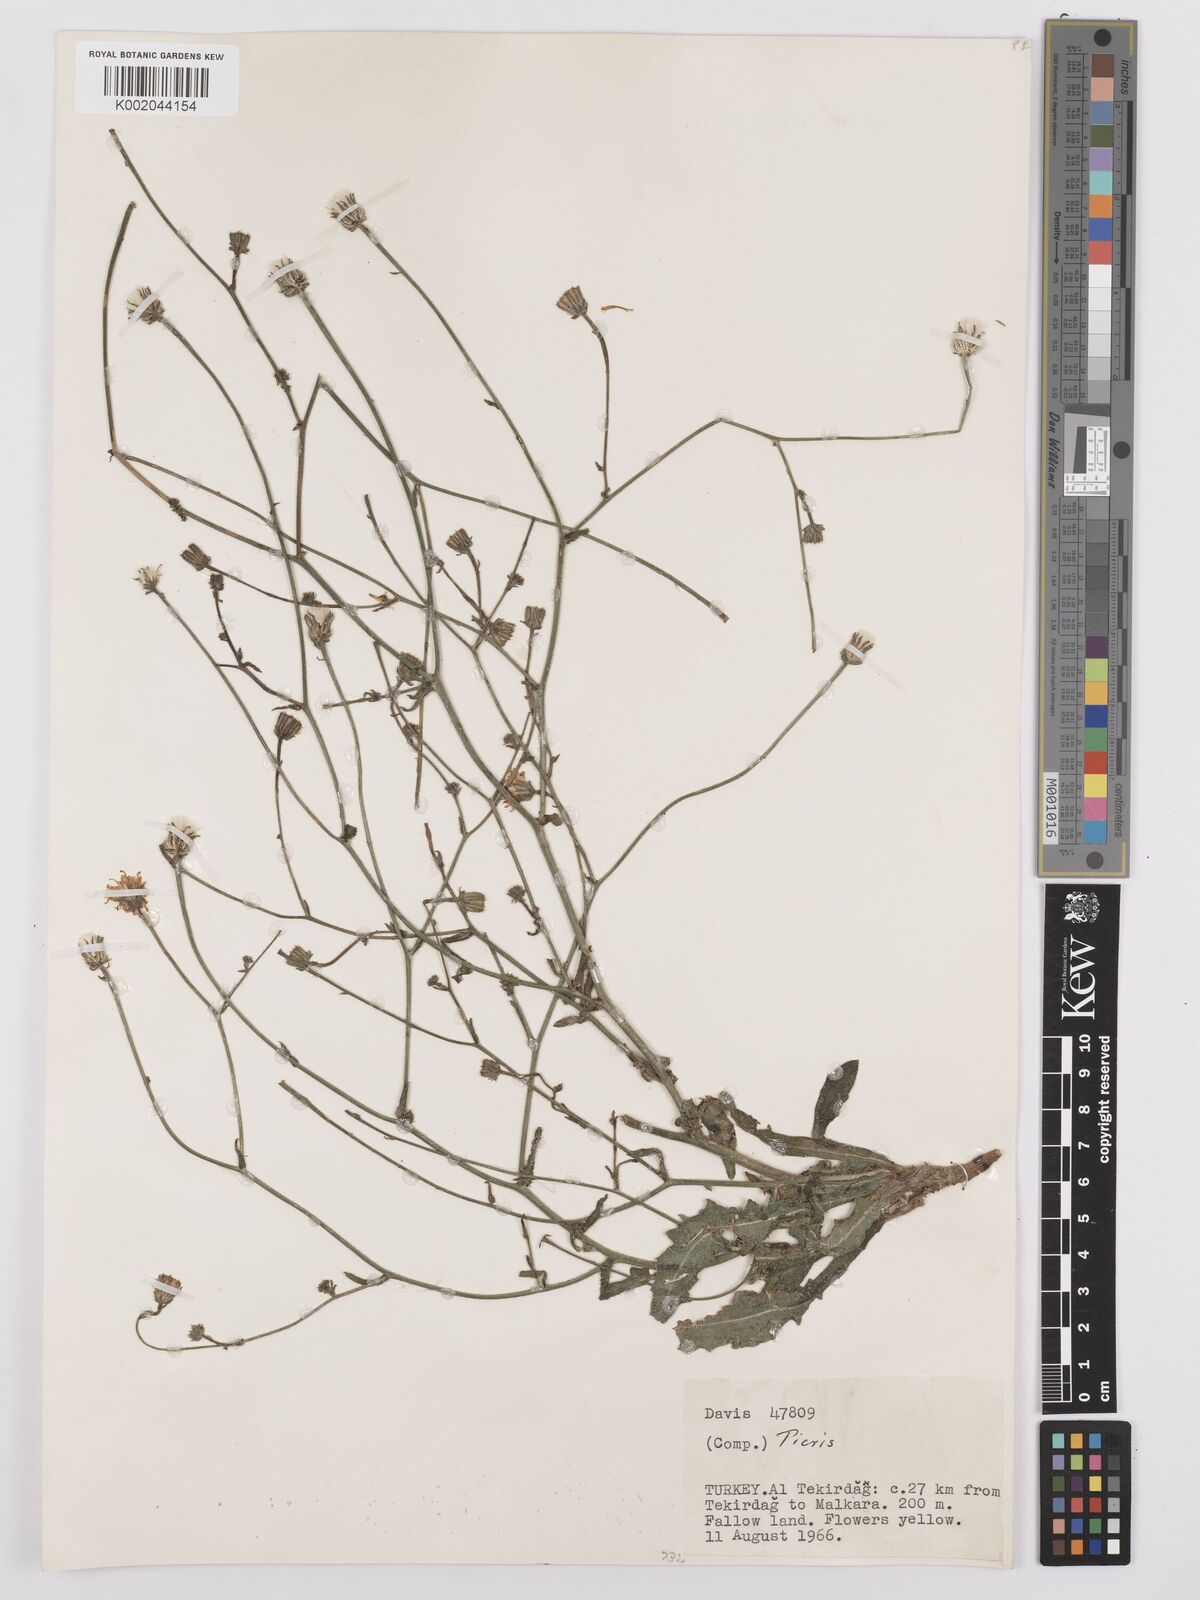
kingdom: Plantae
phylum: Tracheophyta
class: Magnoliopsida
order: Asterales
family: Asteraceae
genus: Picris
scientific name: Picris
